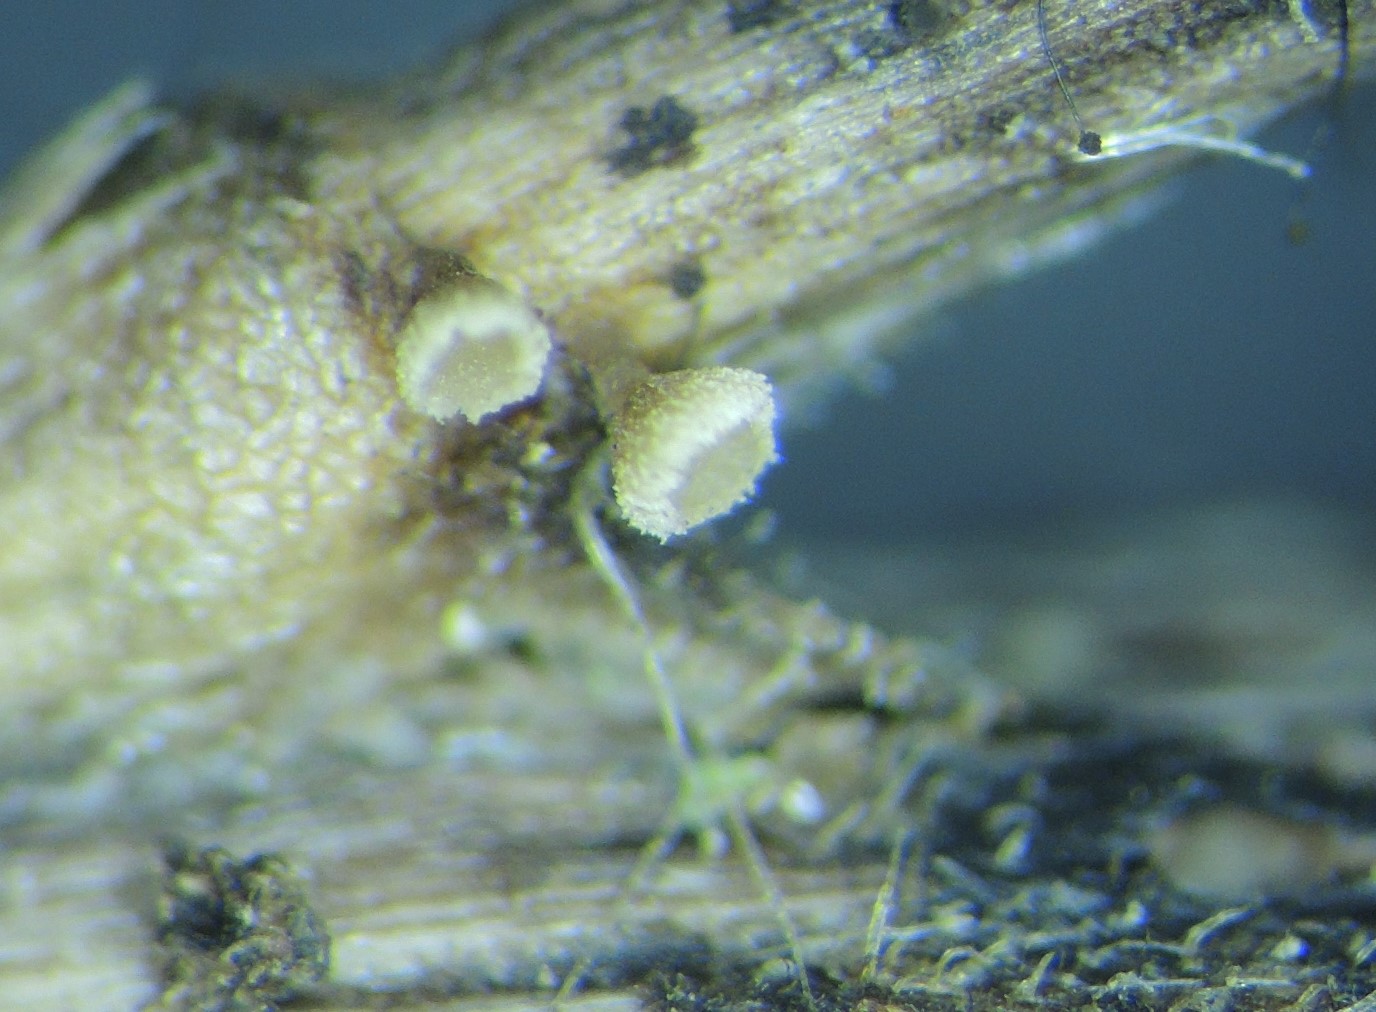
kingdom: Fungi
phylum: Ascomycota
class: Leotiomycetes
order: Helotiales
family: Helotiaceae
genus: Cyathicula
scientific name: Cyathicula cyathoidea
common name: pokal-stilkskive
